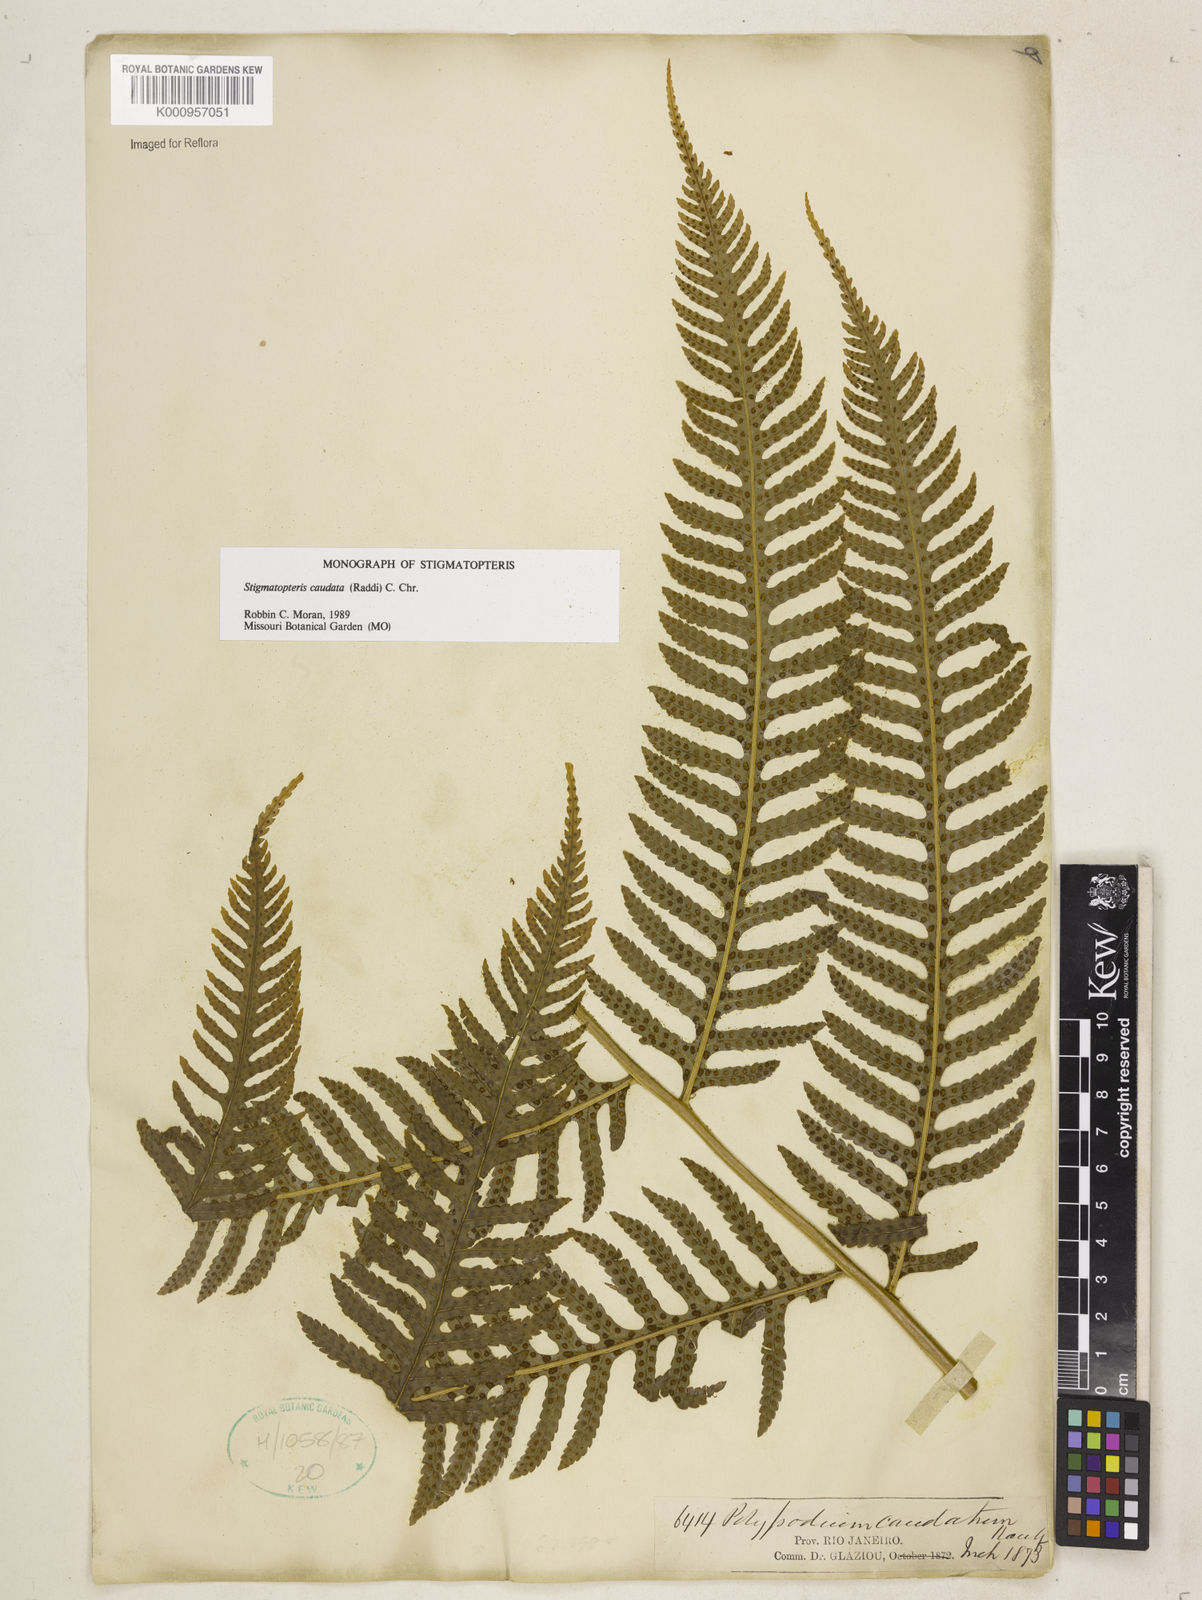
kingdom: Plantae
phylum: Tracheophyta
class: Polypodiopsida
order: Polypodiales
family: Dryopteridaceae
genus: Stigmatopteris
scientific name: Stigmatopteris caudata
